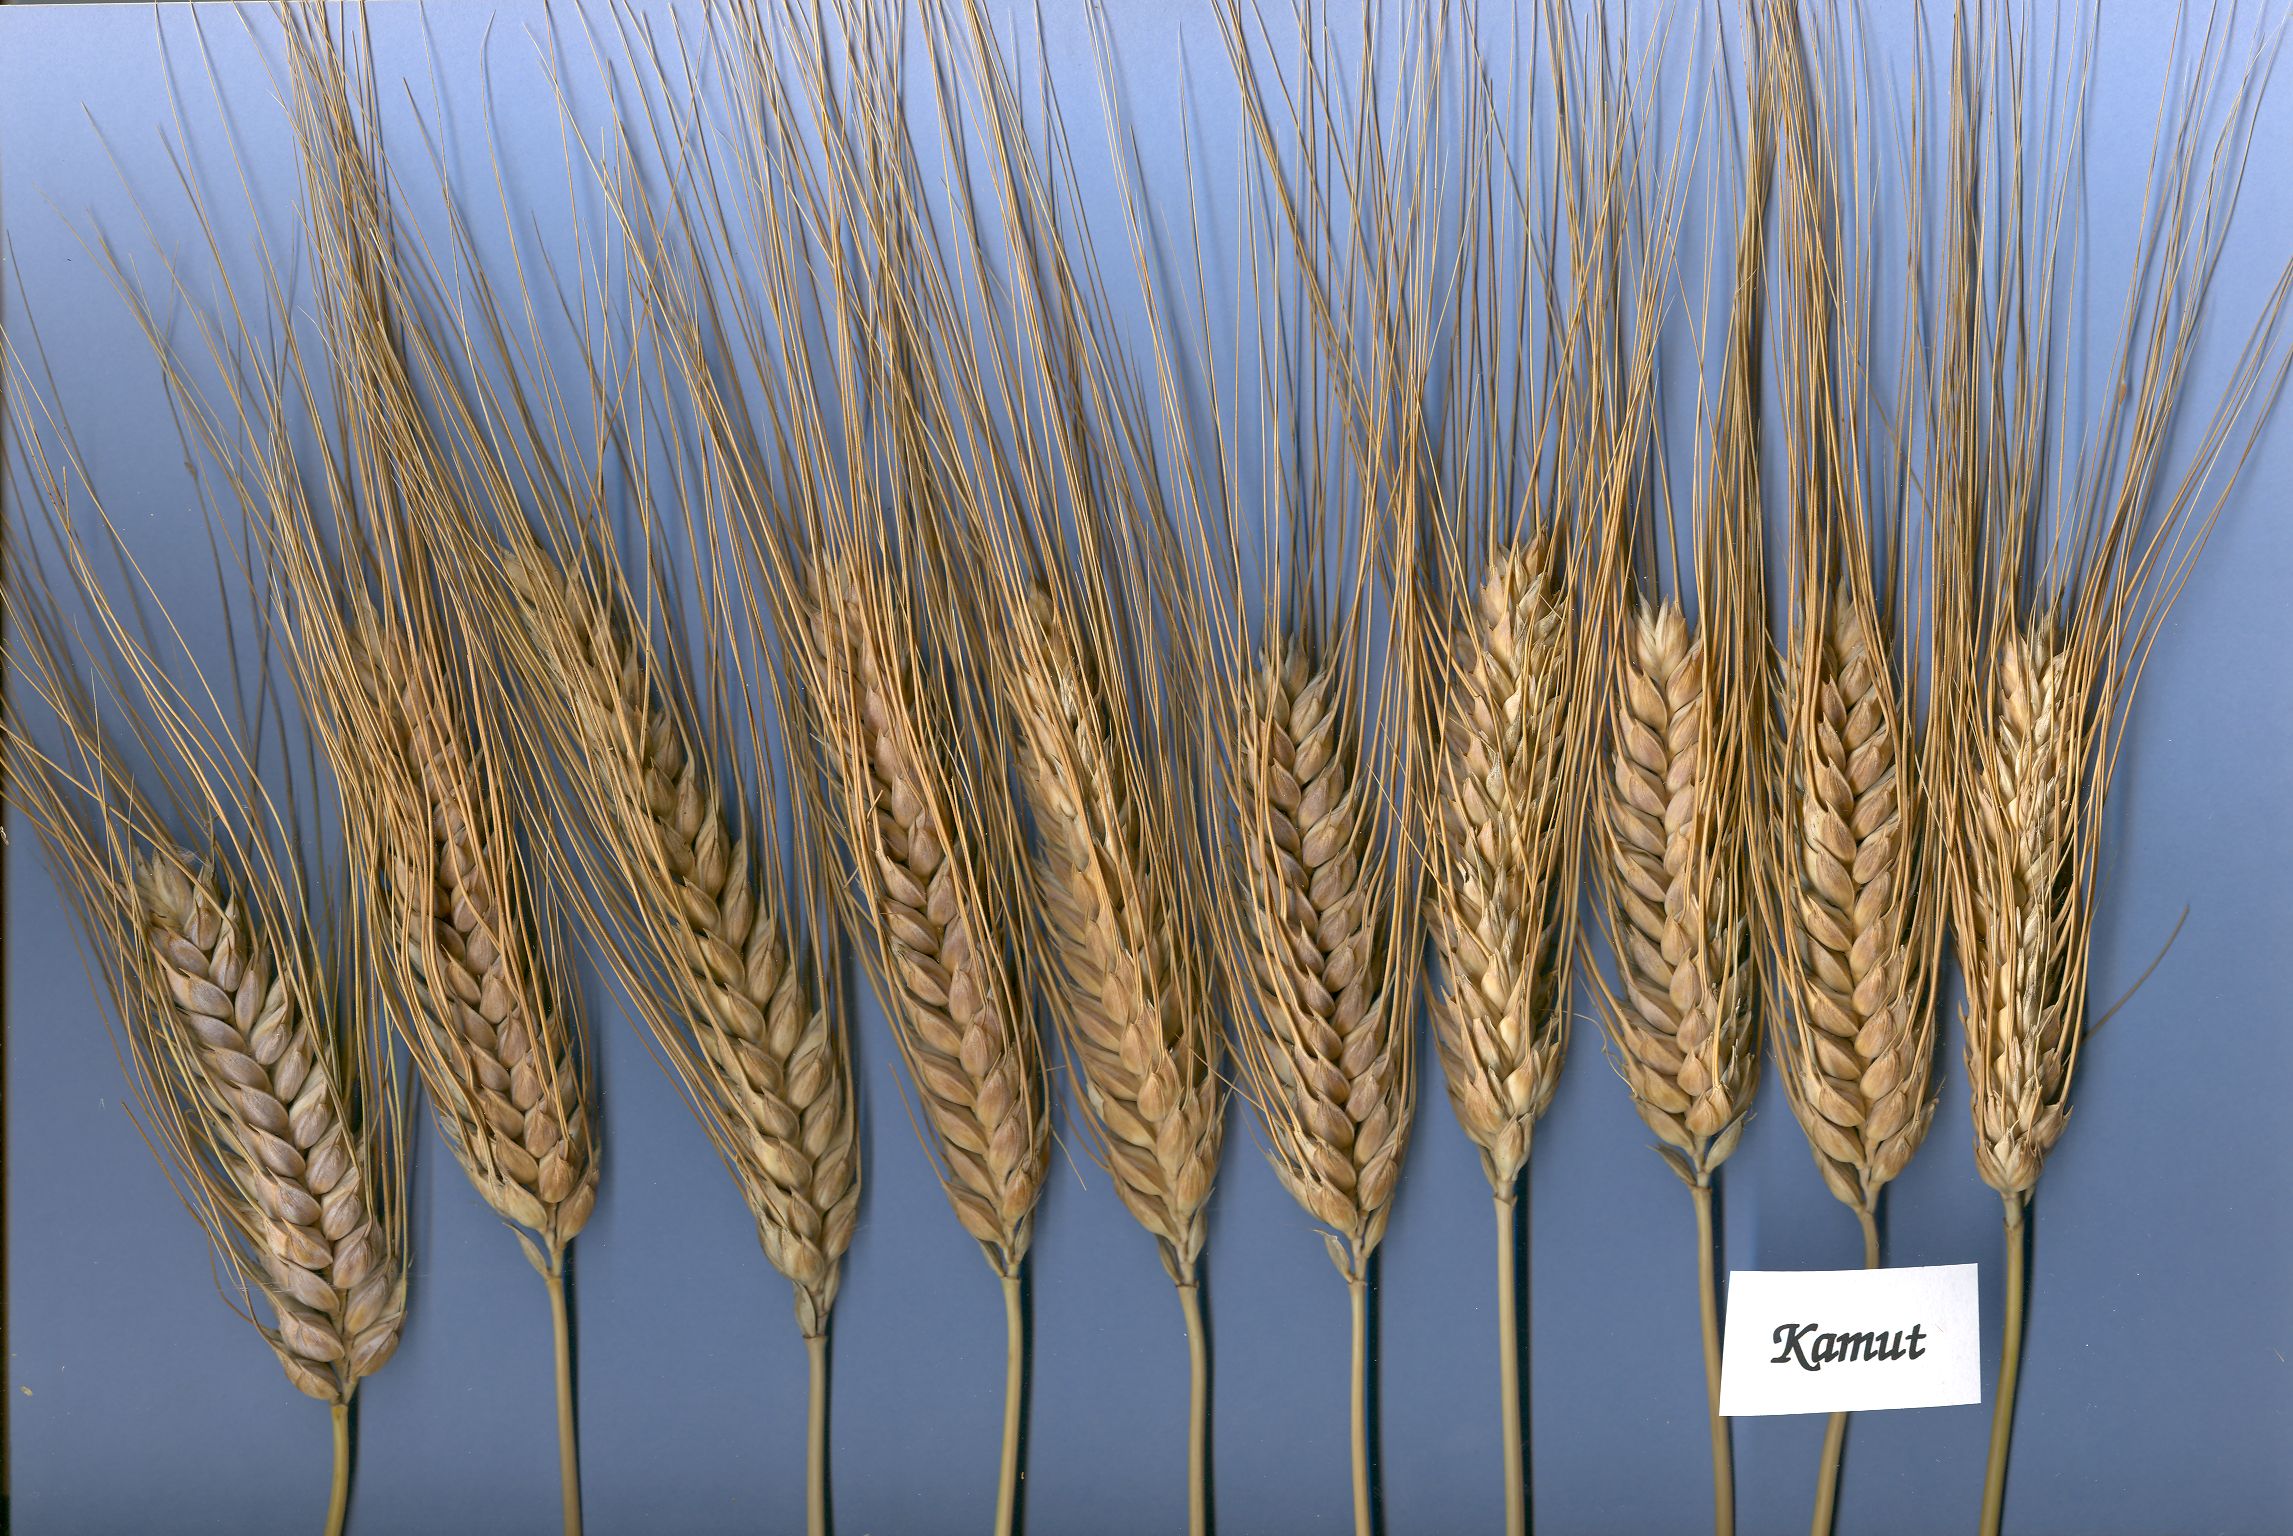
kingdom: Plantae
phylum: Tracheophyta
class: Liliopsida
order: Poales
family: Poaceae
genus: Triticum
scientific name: Triticum turgidum
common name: Rivet wheat
